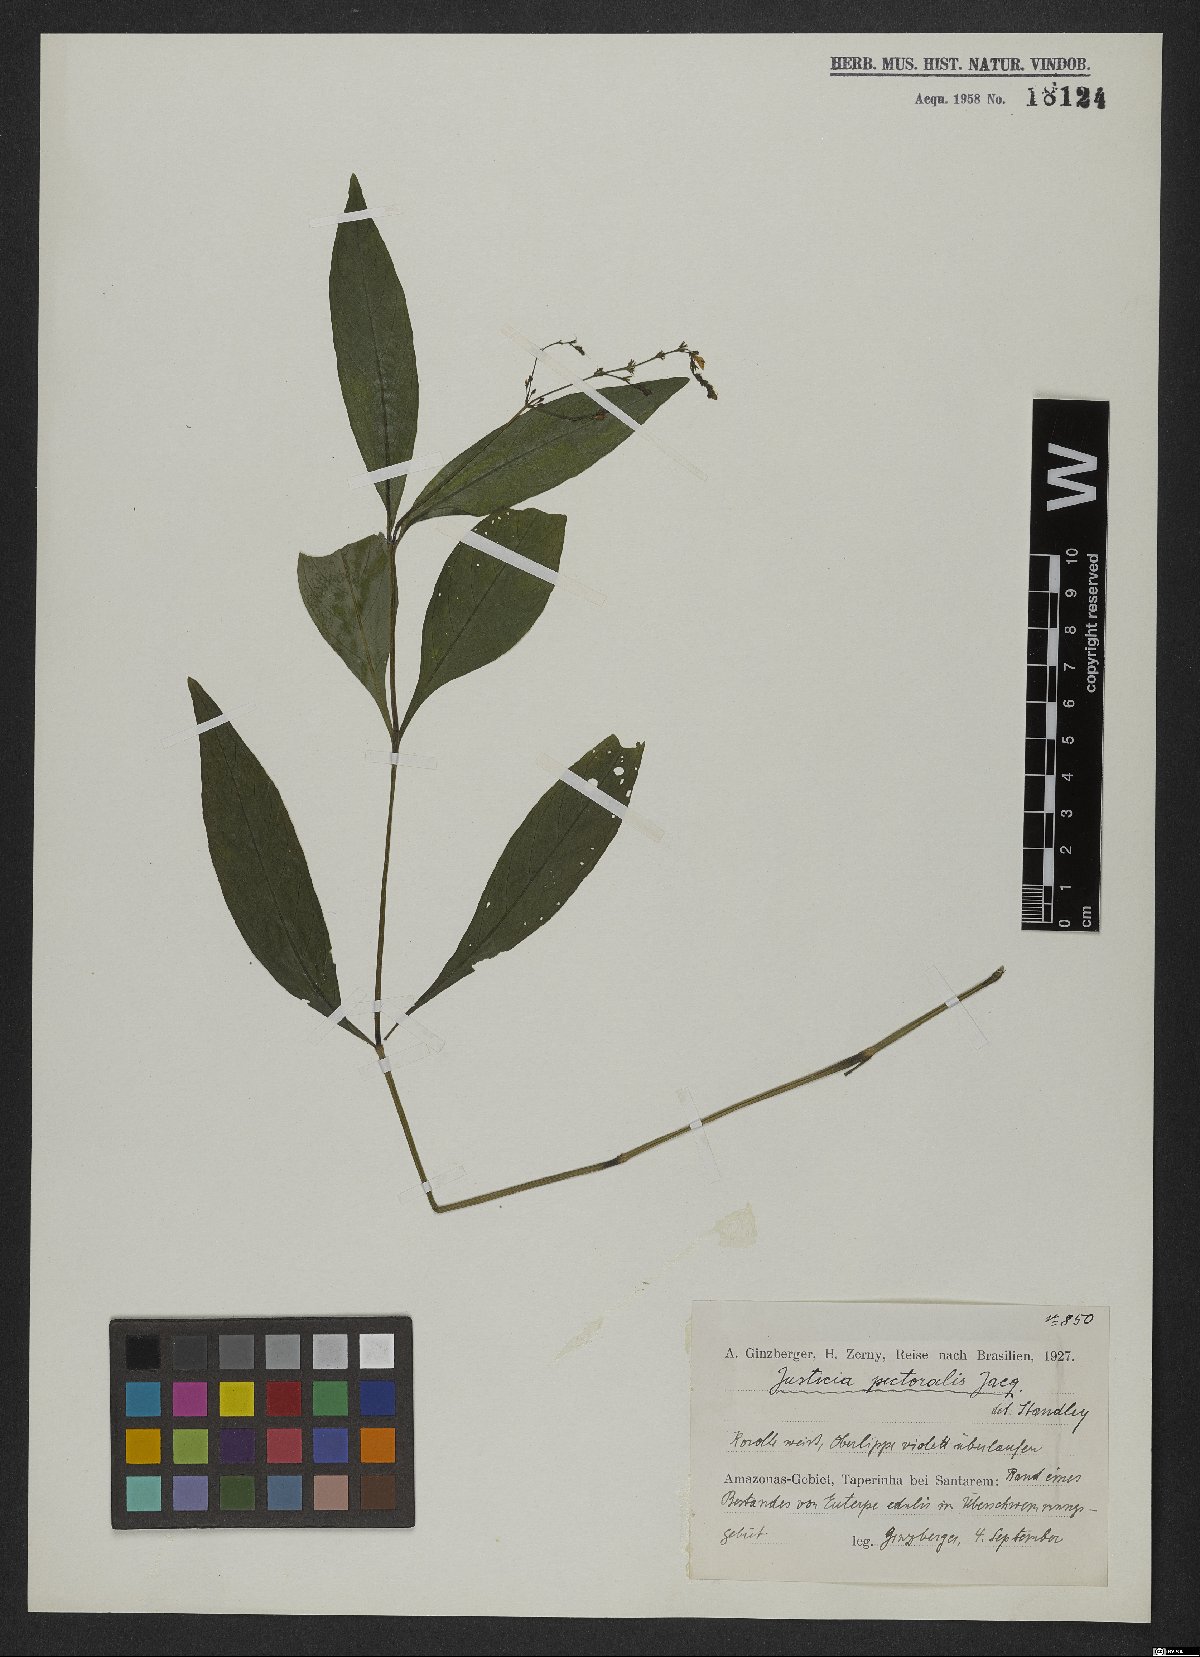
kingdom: Plantae
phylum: Tracheophyta
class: Magnoliopsida
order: Lamiales
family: Acanthaceae
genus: Dianthera
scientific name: Dianthera pectoralis
